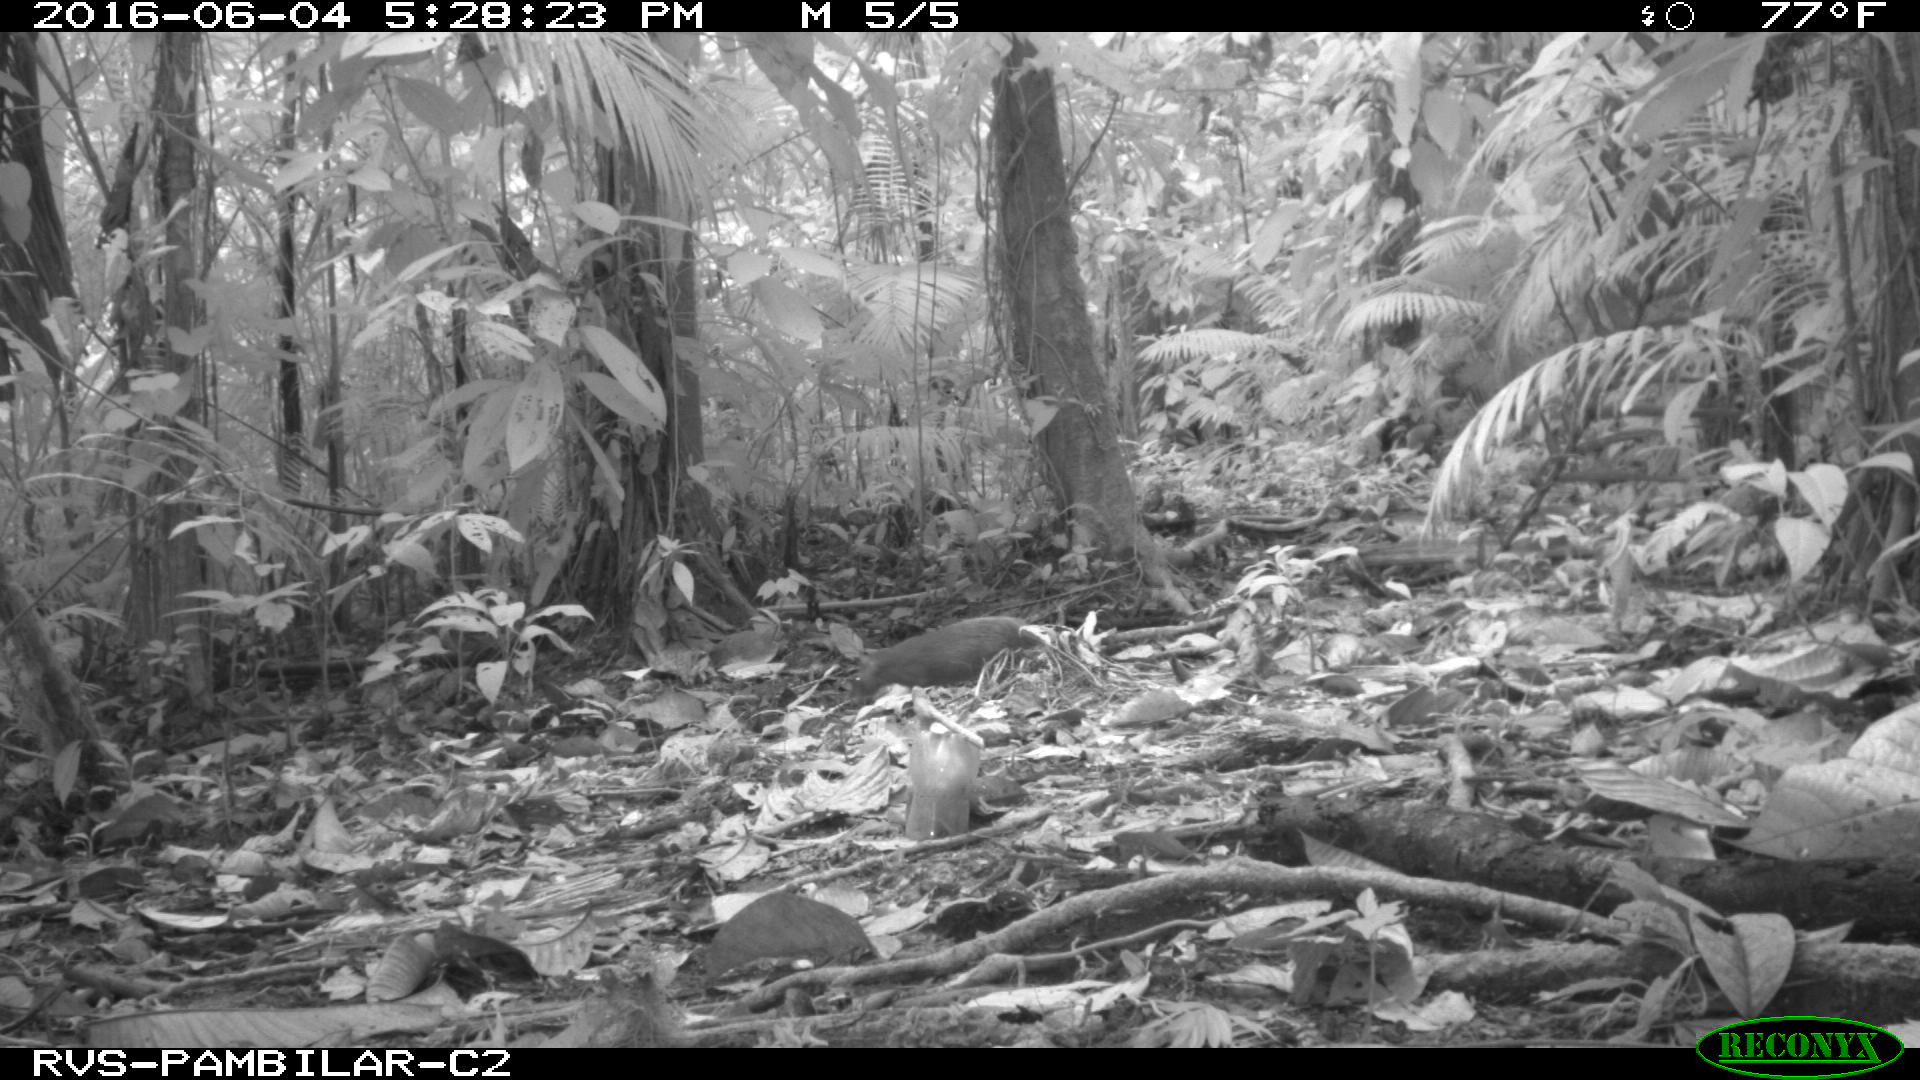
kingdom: Animalia
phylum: Chordata
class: Mammalia
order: Rodentia
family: Dasyproctidae
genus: Dasyprocta
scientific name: Dasyprocta punctata
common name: Central american agouti
